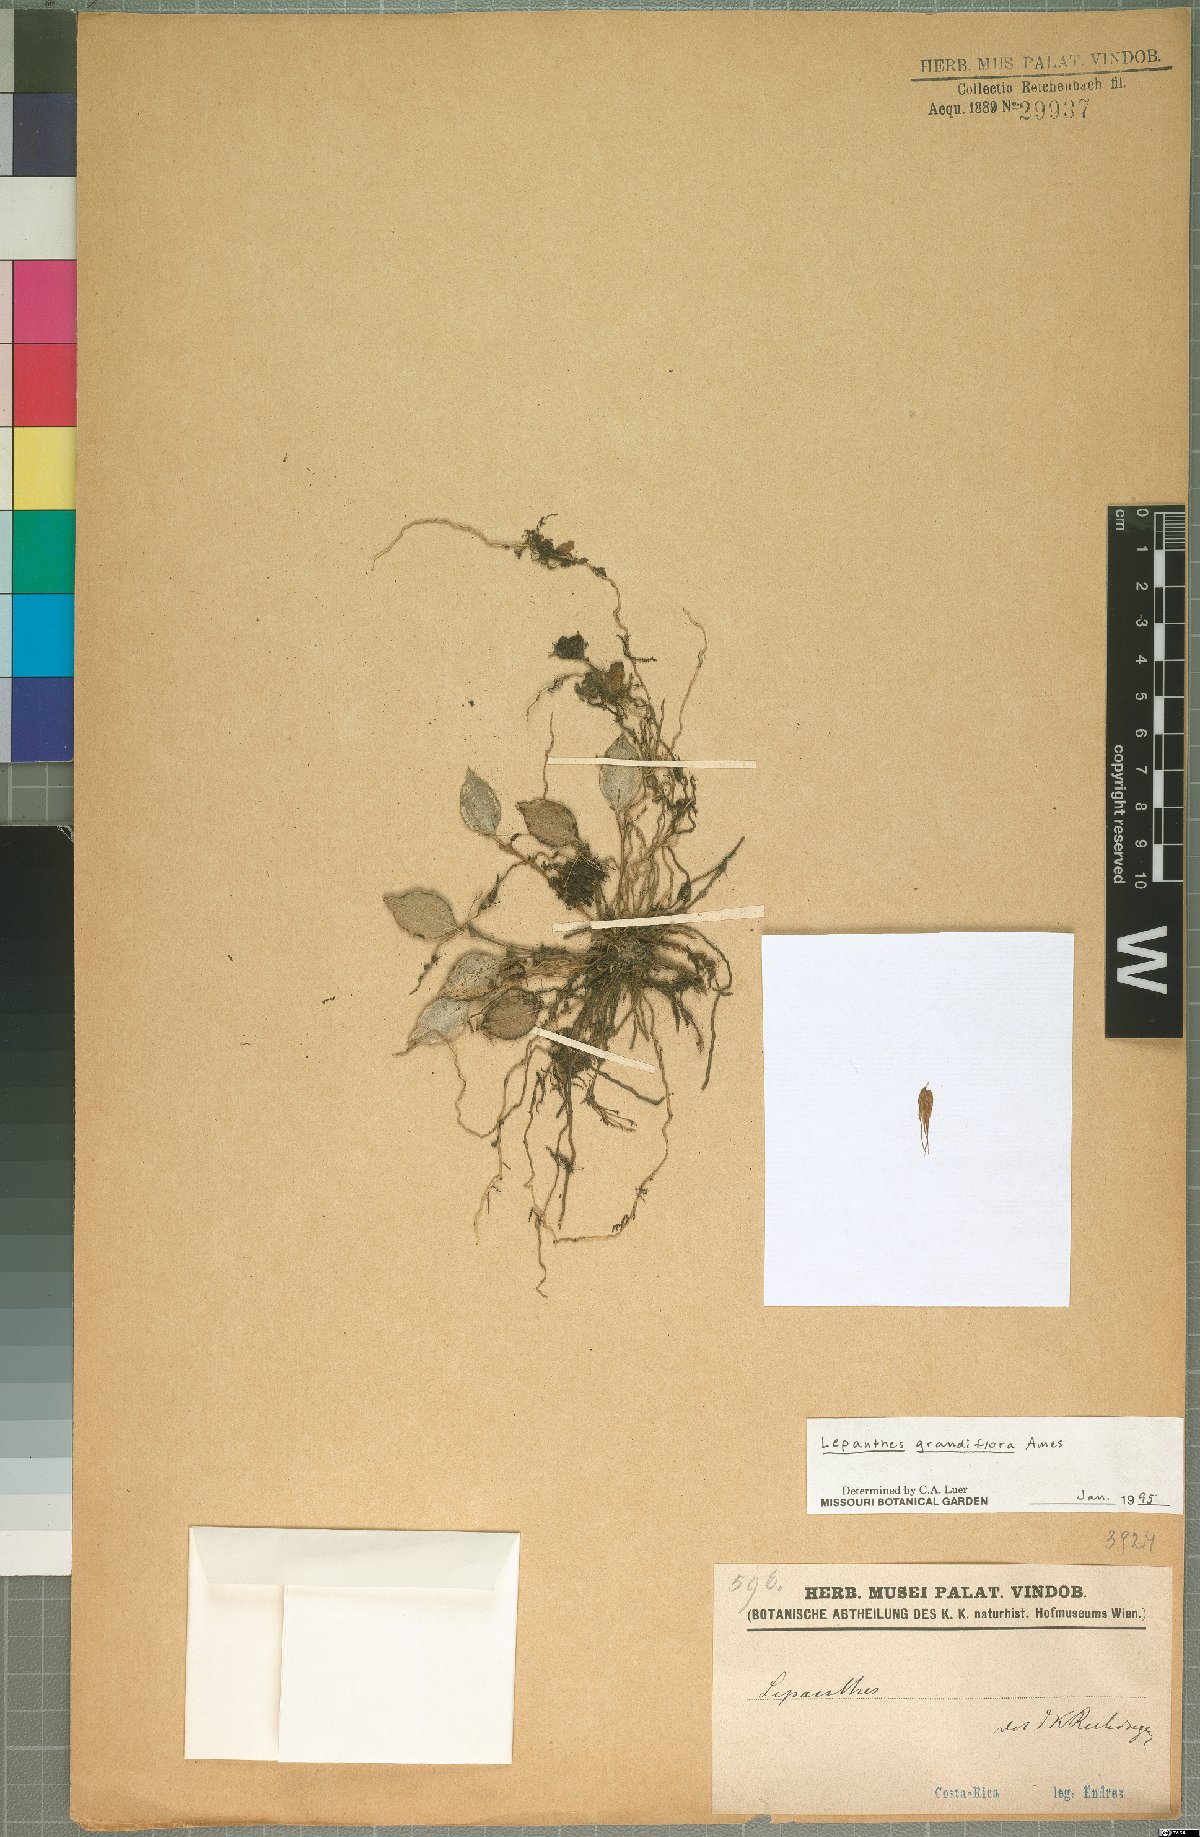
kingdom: Plantae
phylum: Tracheophyta
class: Liliopsida
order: Asparagales
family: Orchidaceae
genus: Lepanthes
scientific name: Lepanthes grandiflora
